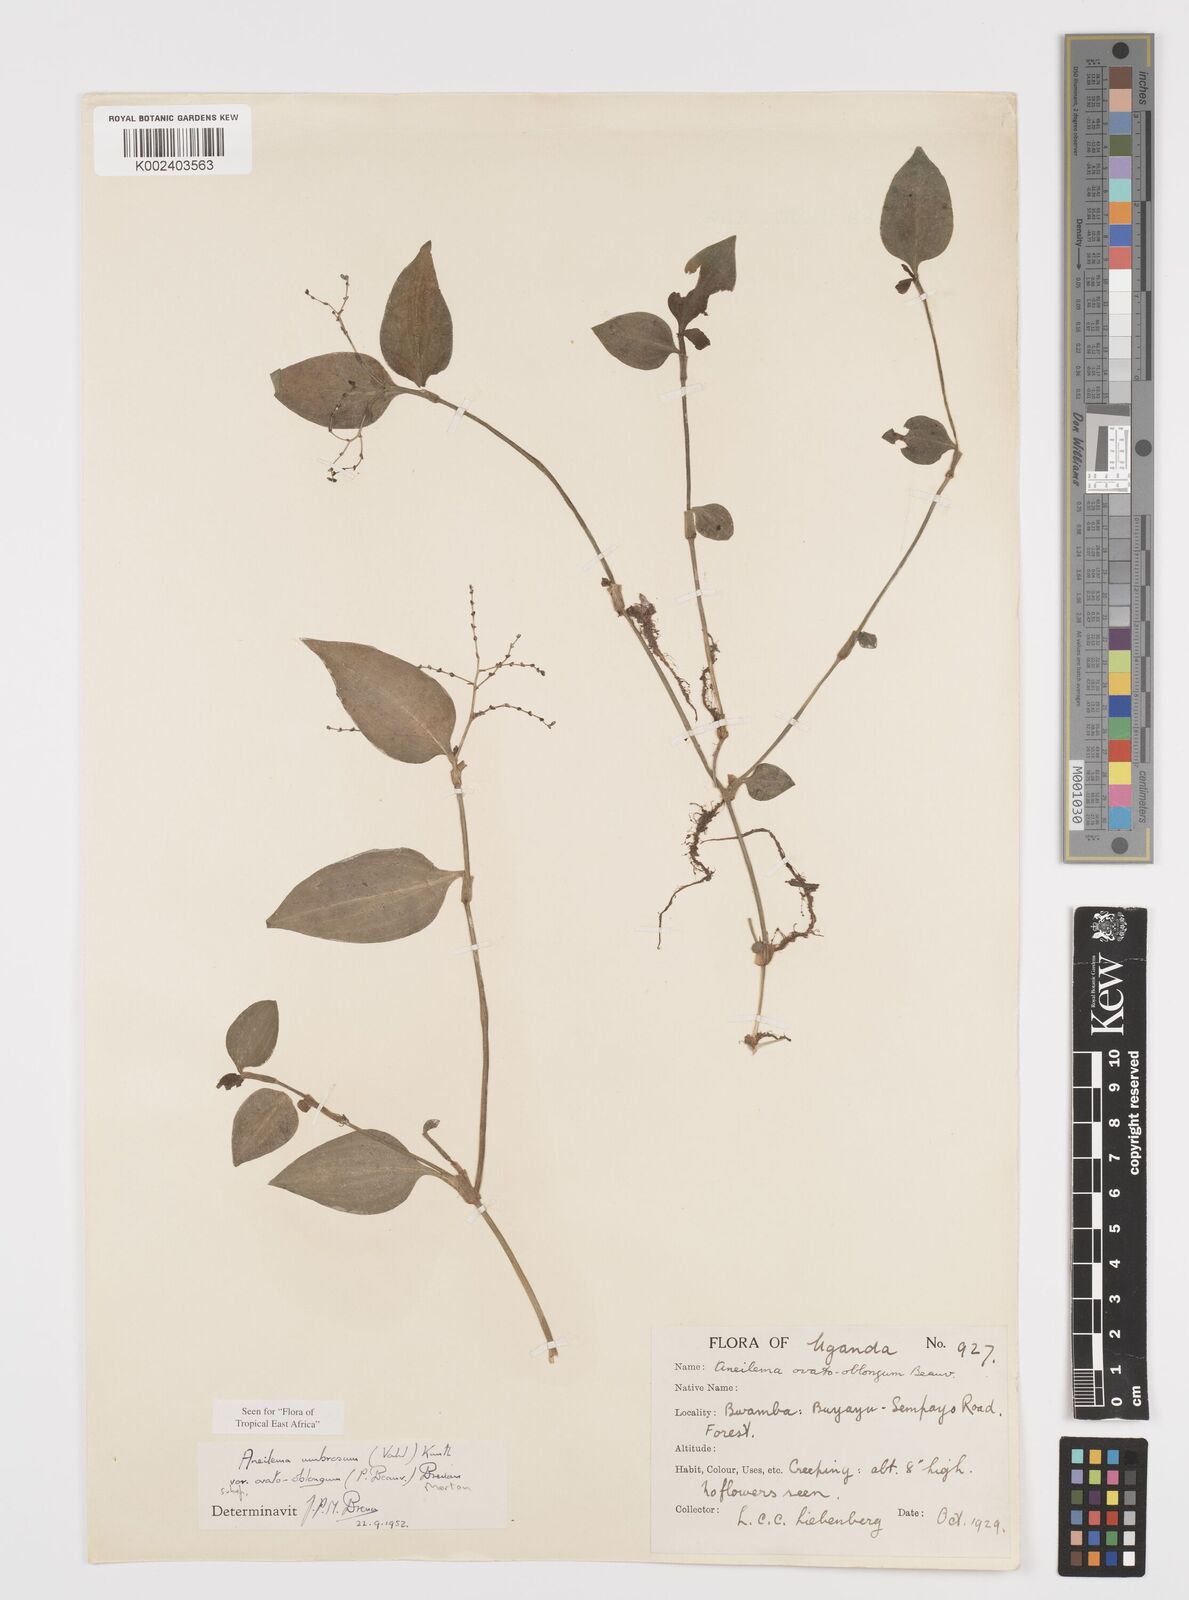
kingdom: Plantae
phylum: Tracheophyta
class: Liliopsida
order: Commelinales
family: Commelinaceae
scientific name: Commelinaceae
